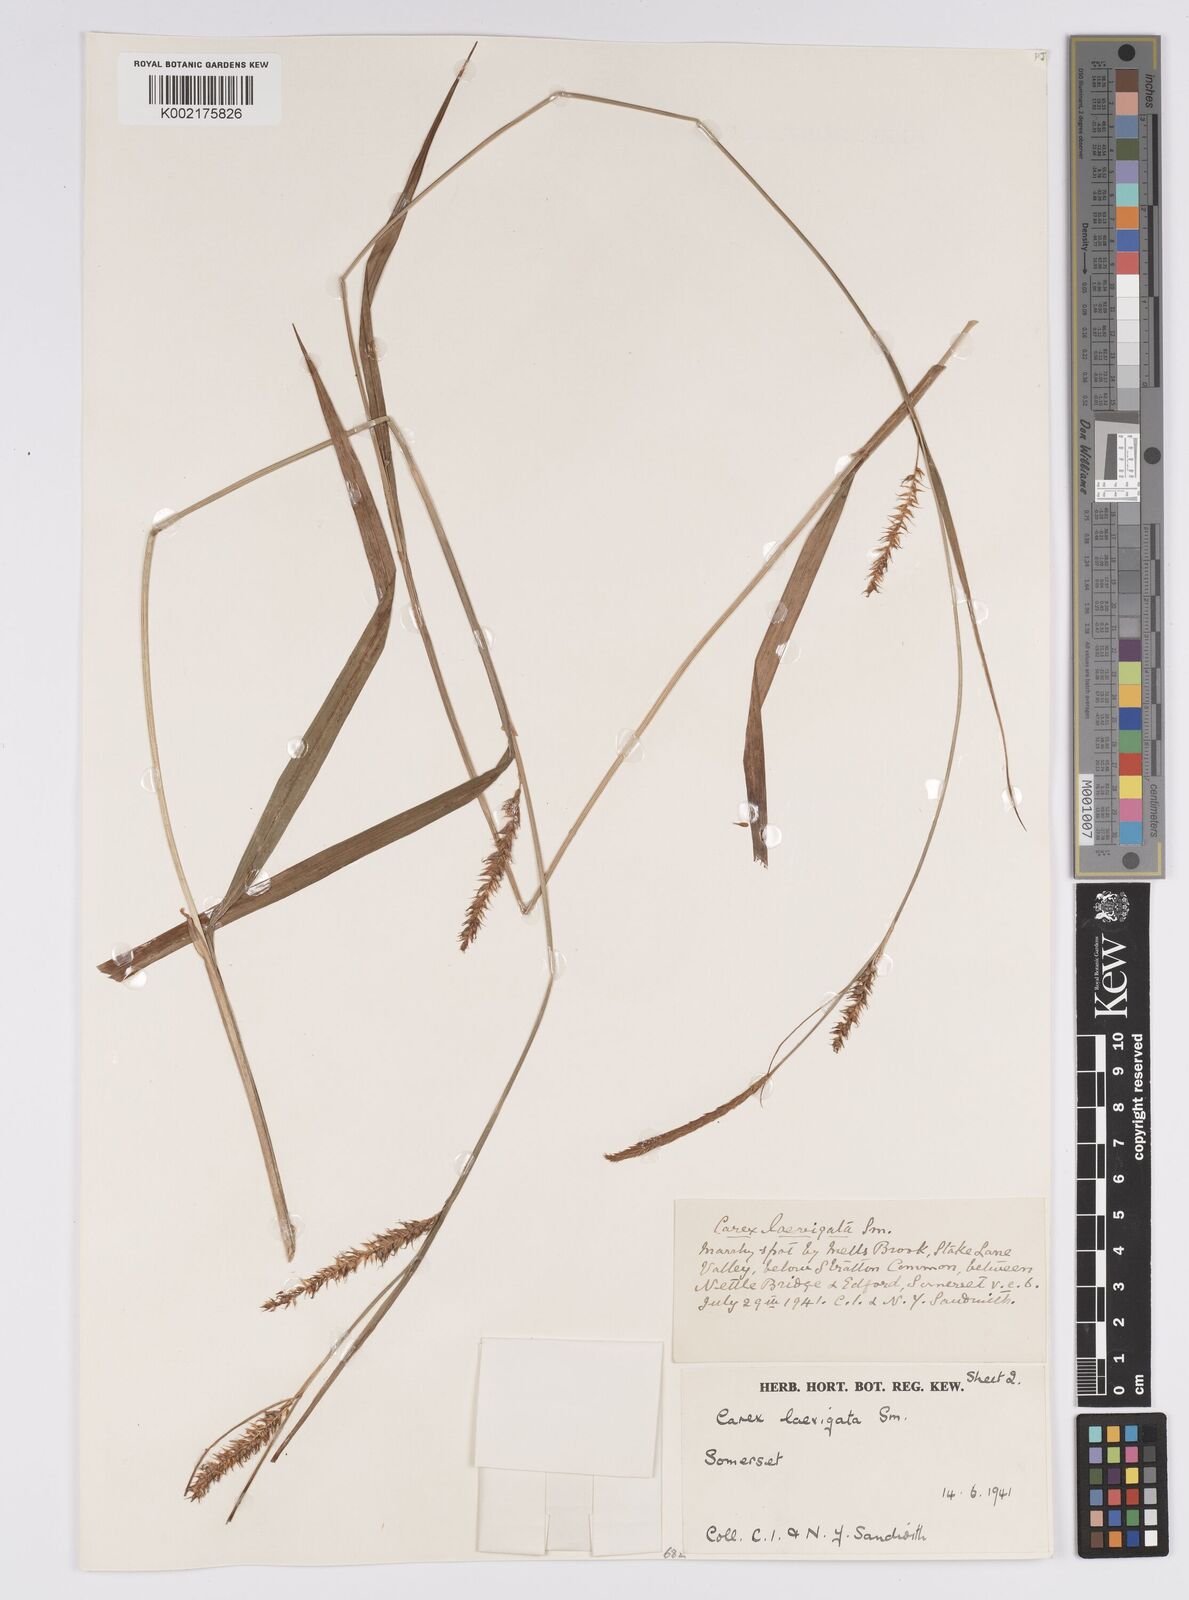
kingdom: Plantae
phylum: Tracheophyta
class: Liliopsida
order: Poales
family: Cyperaceae
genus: Carex
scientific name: Carex laevigata
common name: Smooth-stalked sedge
